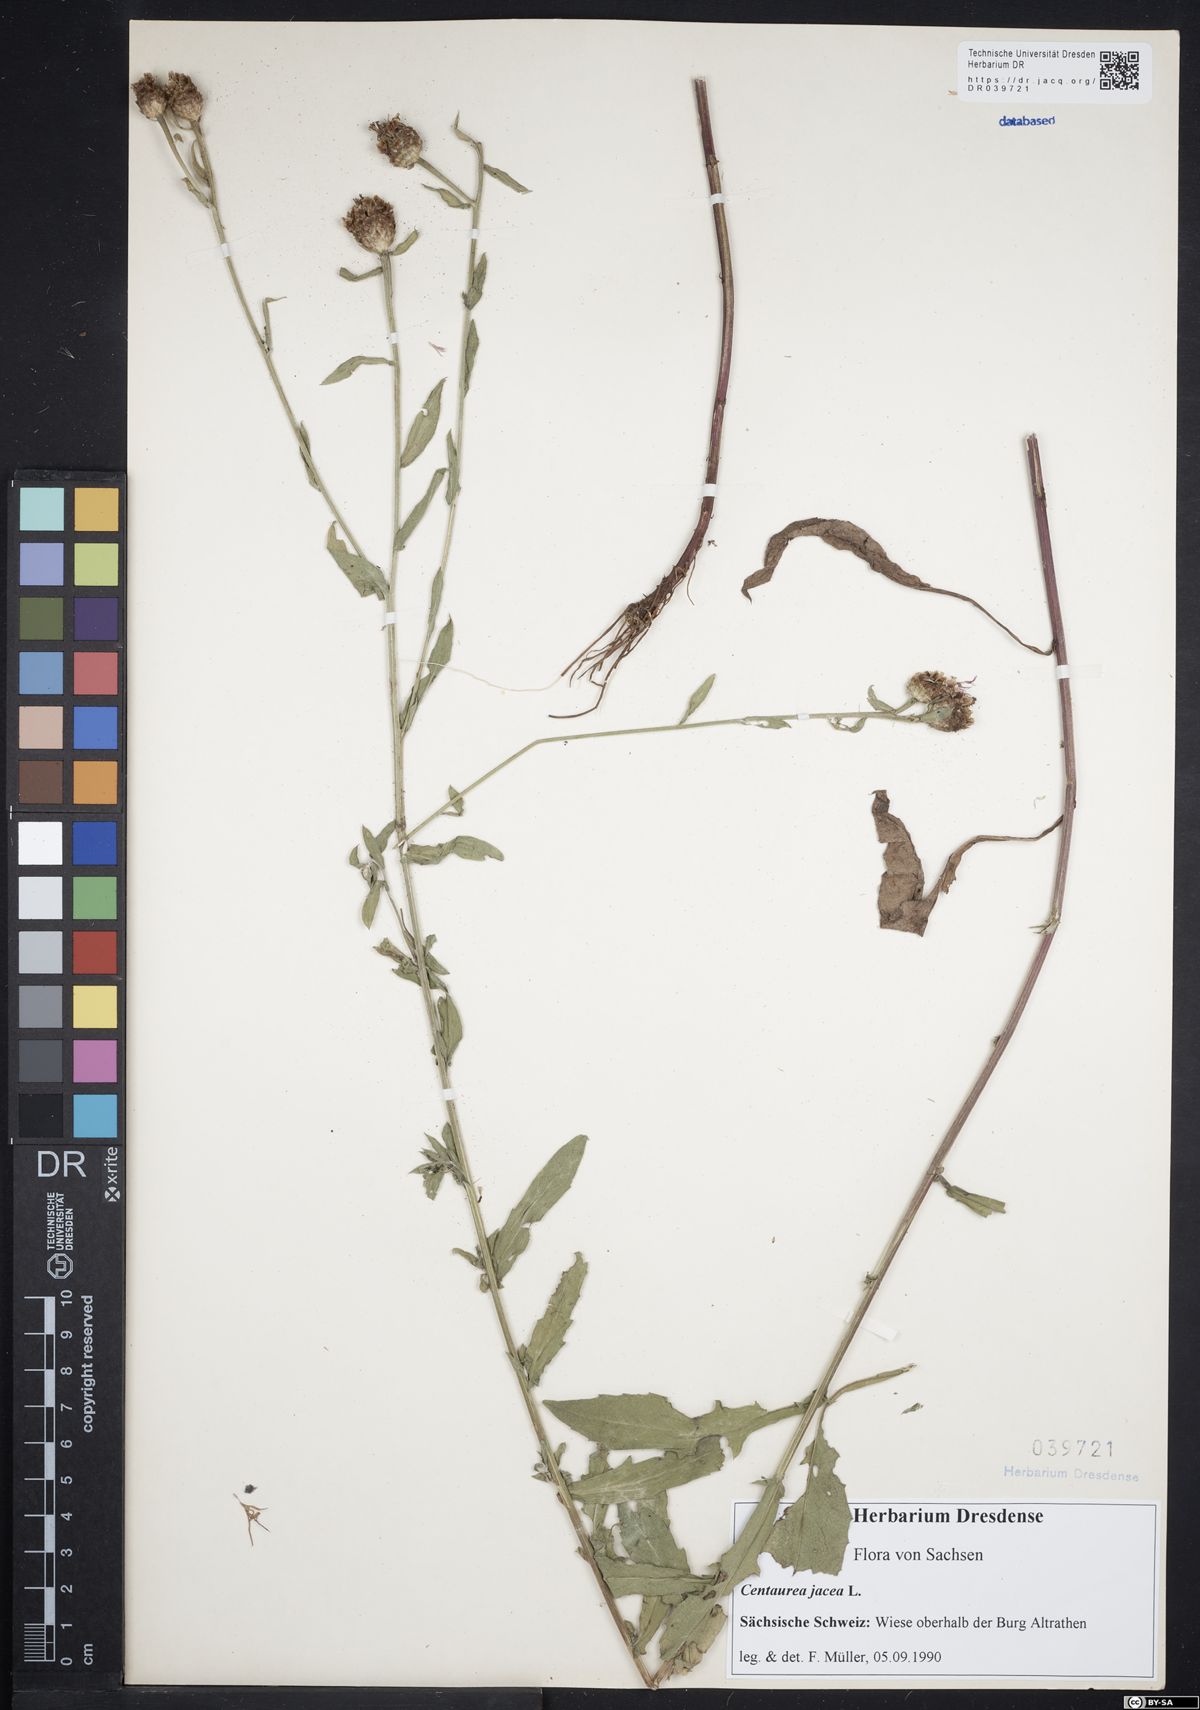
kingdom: Plantae
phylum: Tracheophyta
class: Magnoliopsida
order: Asterales
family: Asteraceae
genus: Centaurea
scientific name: Centaurea jacea
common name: Brown knapweed
